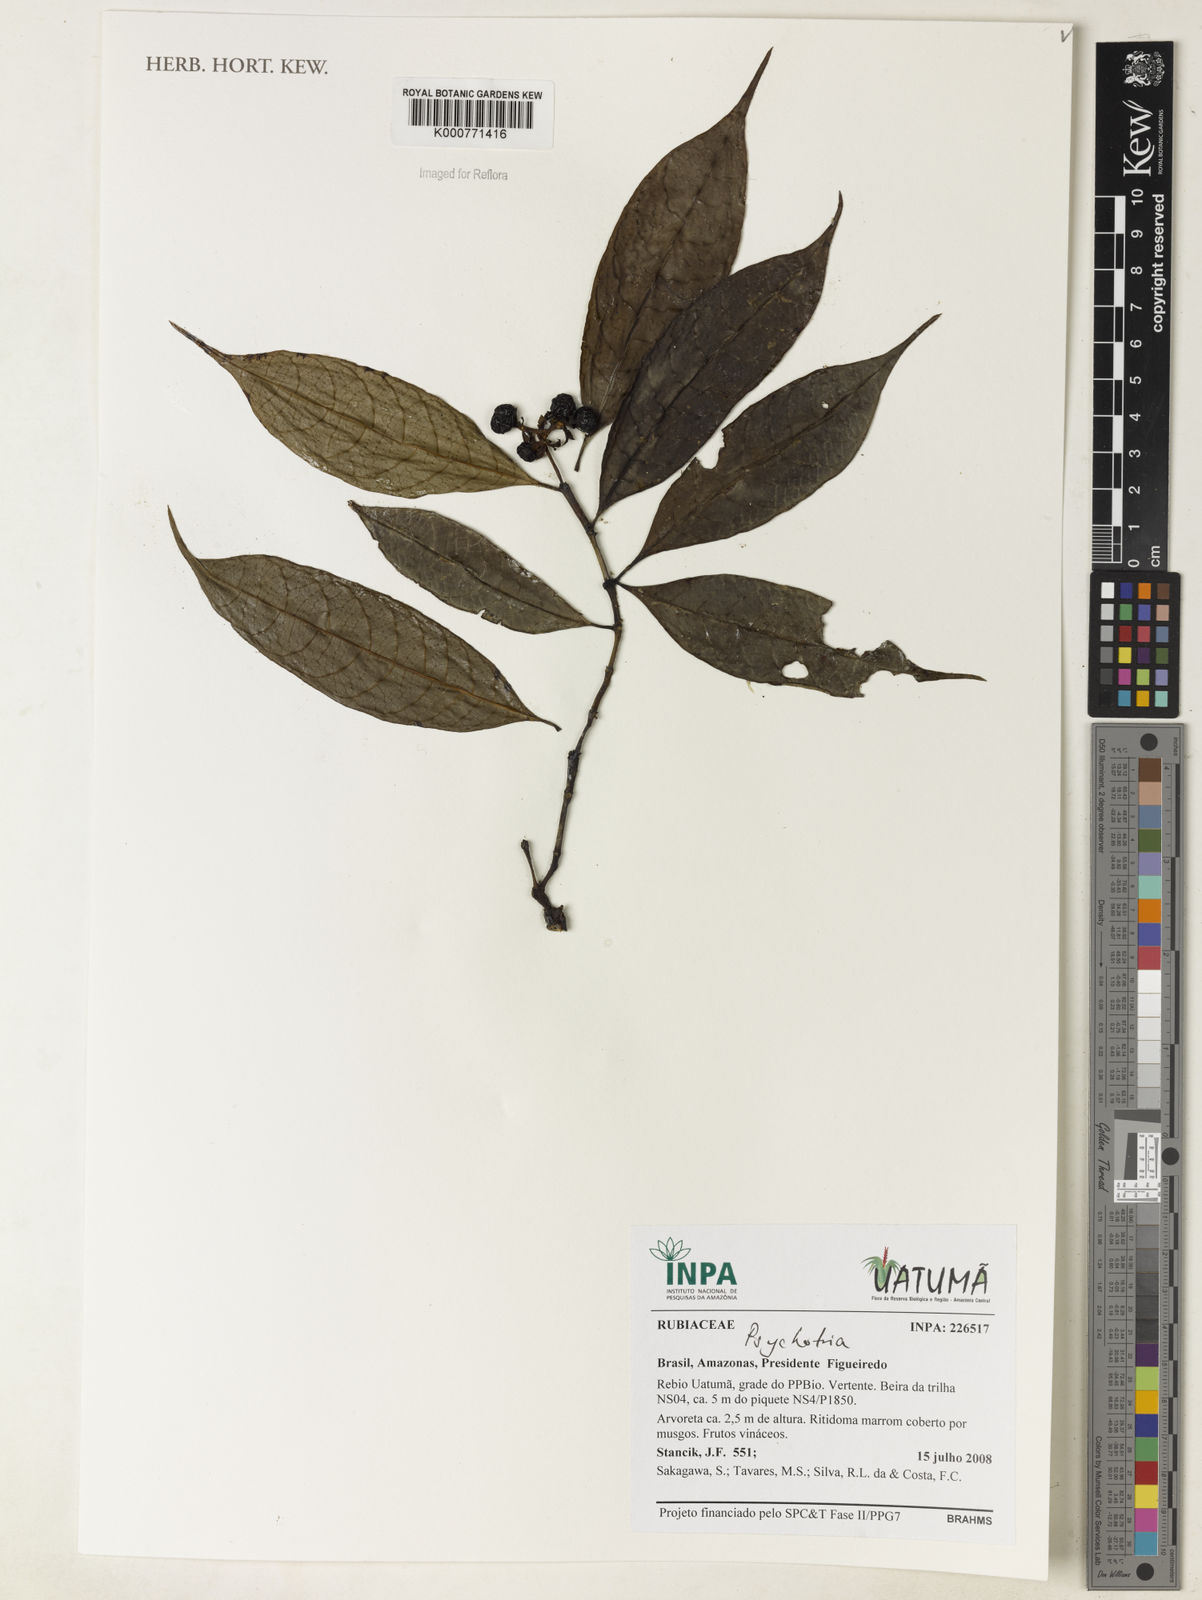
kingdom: Plantae
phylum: Tracheophyta
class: Magnoliopsida
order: Gentianales
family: Rubiaceae
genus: Psychotria
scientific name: Psychotria
